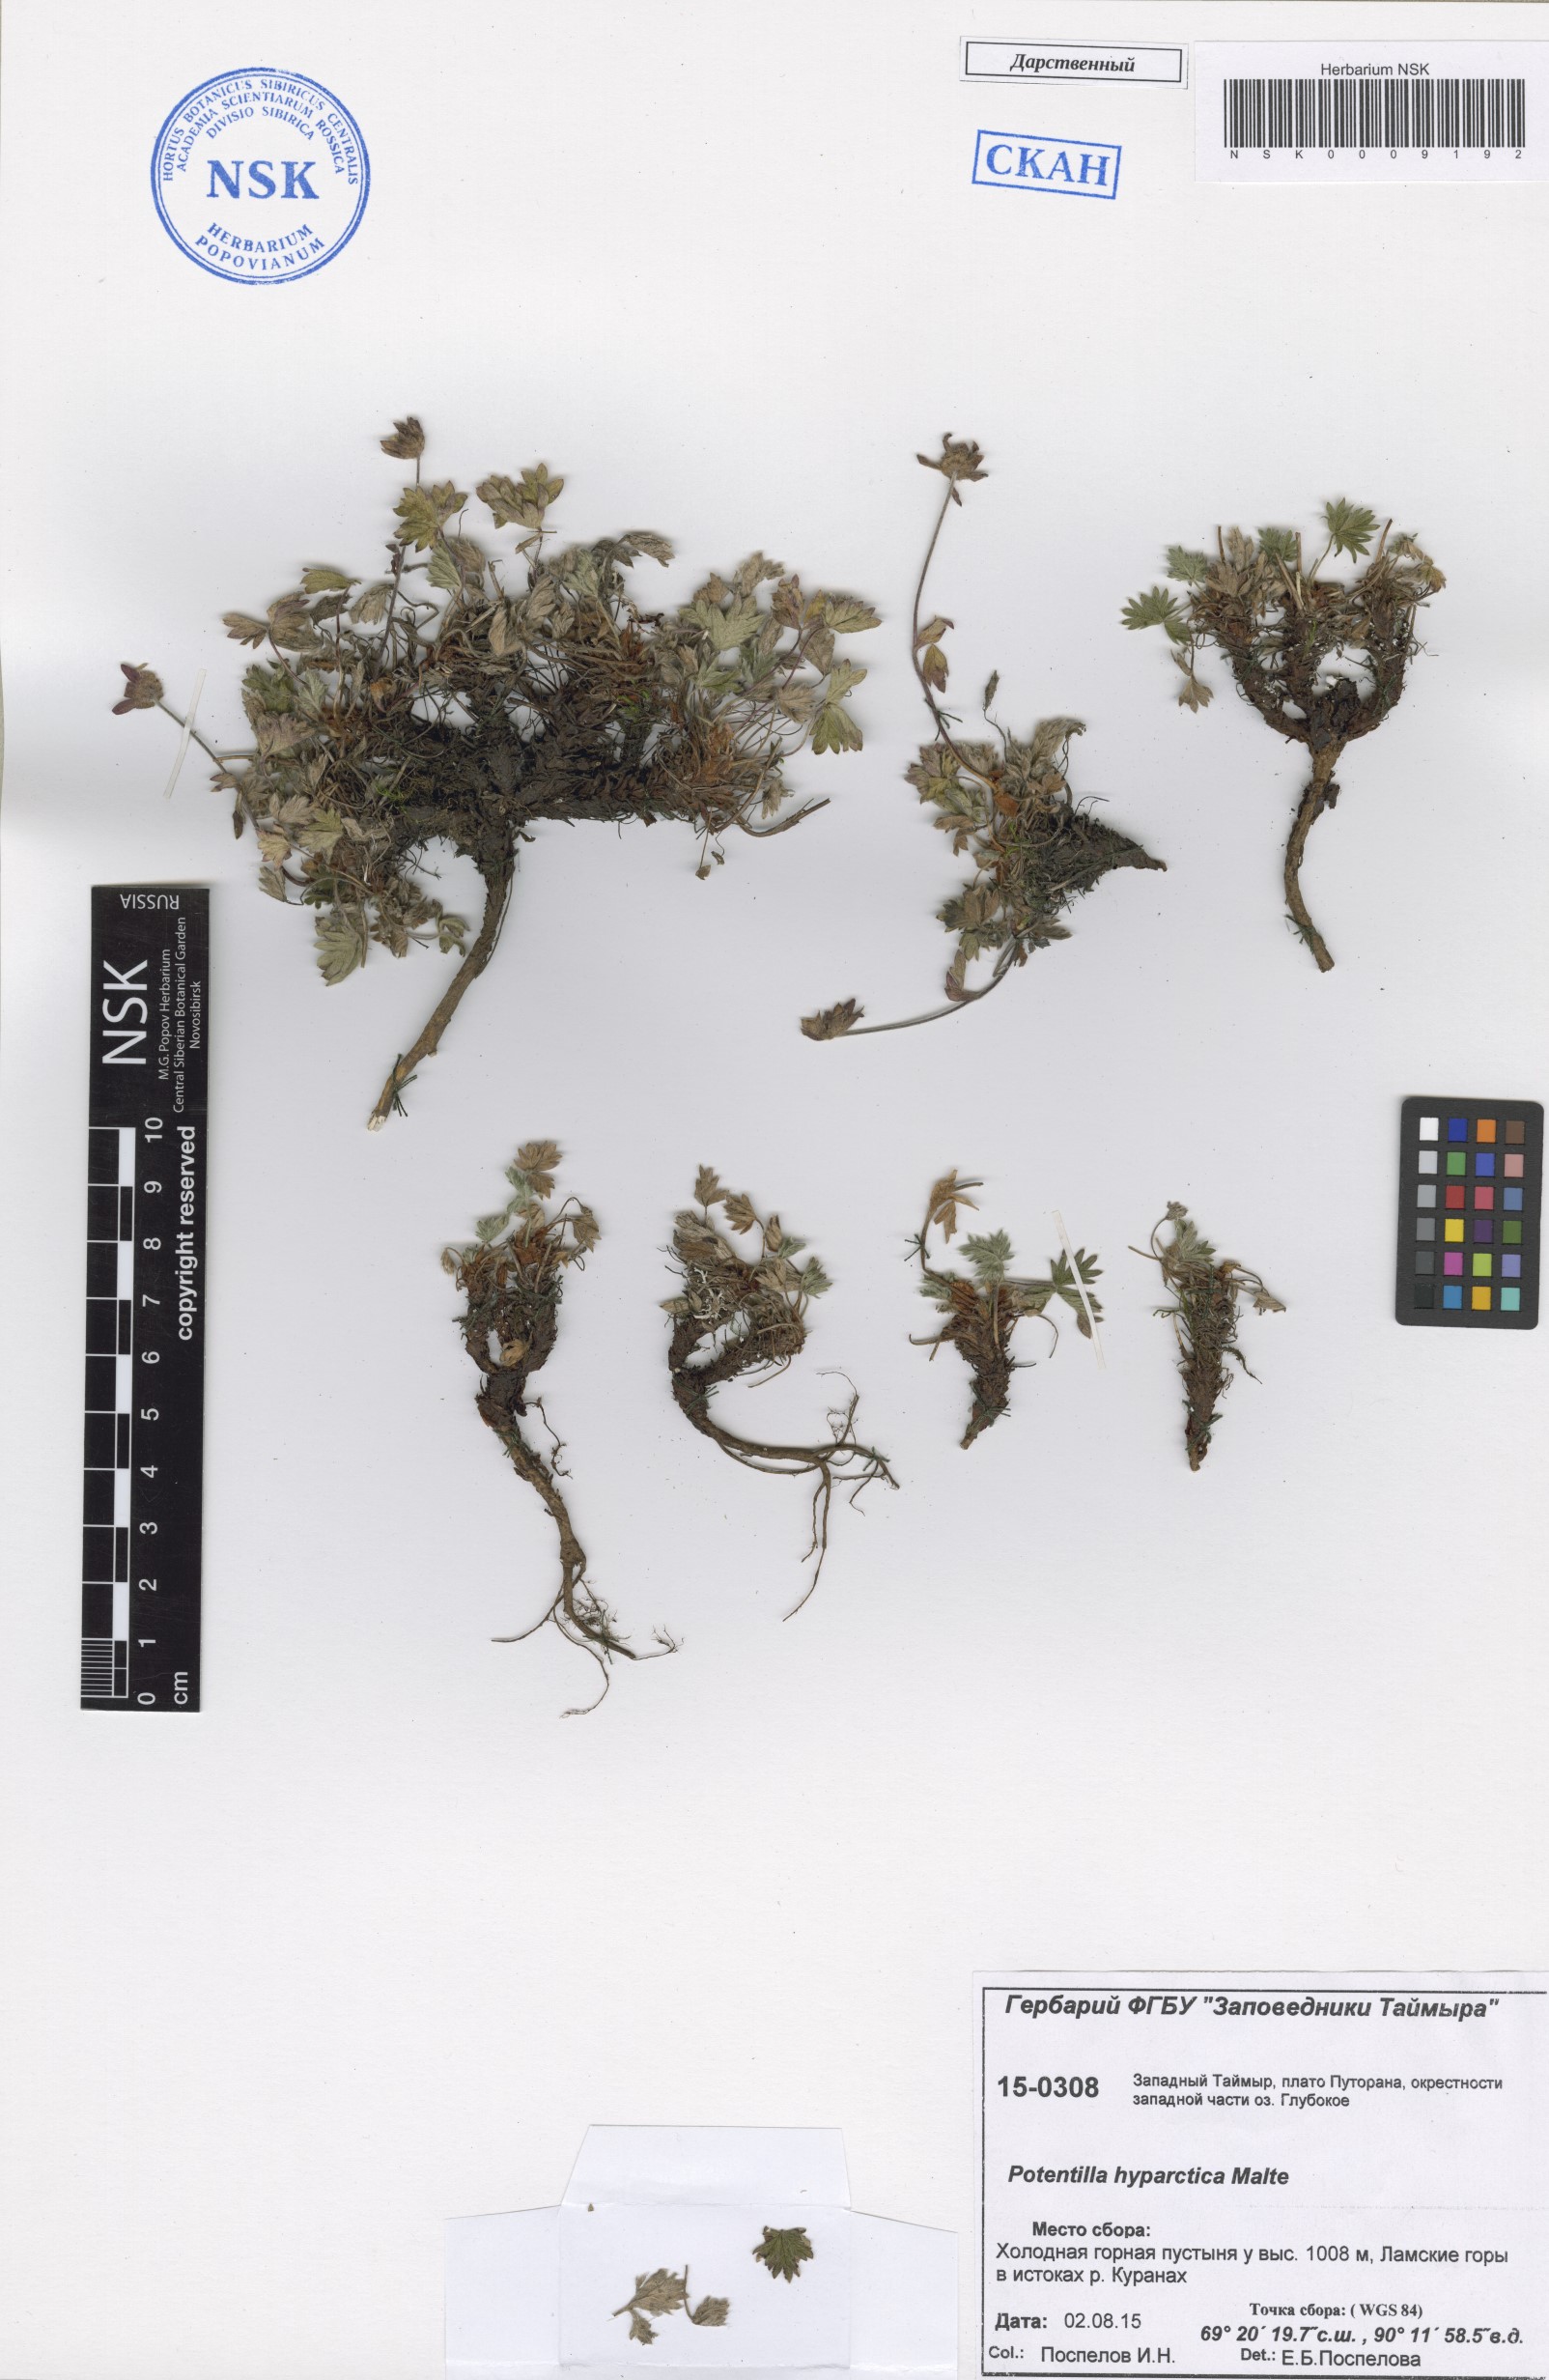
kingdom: Plantae
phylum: Tracheophyta
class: Magnoliopsida
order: Rosales
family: Rosaceae
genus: Potentilla
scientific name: Potentilla hyparctica
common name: Arctic cinquefoil
